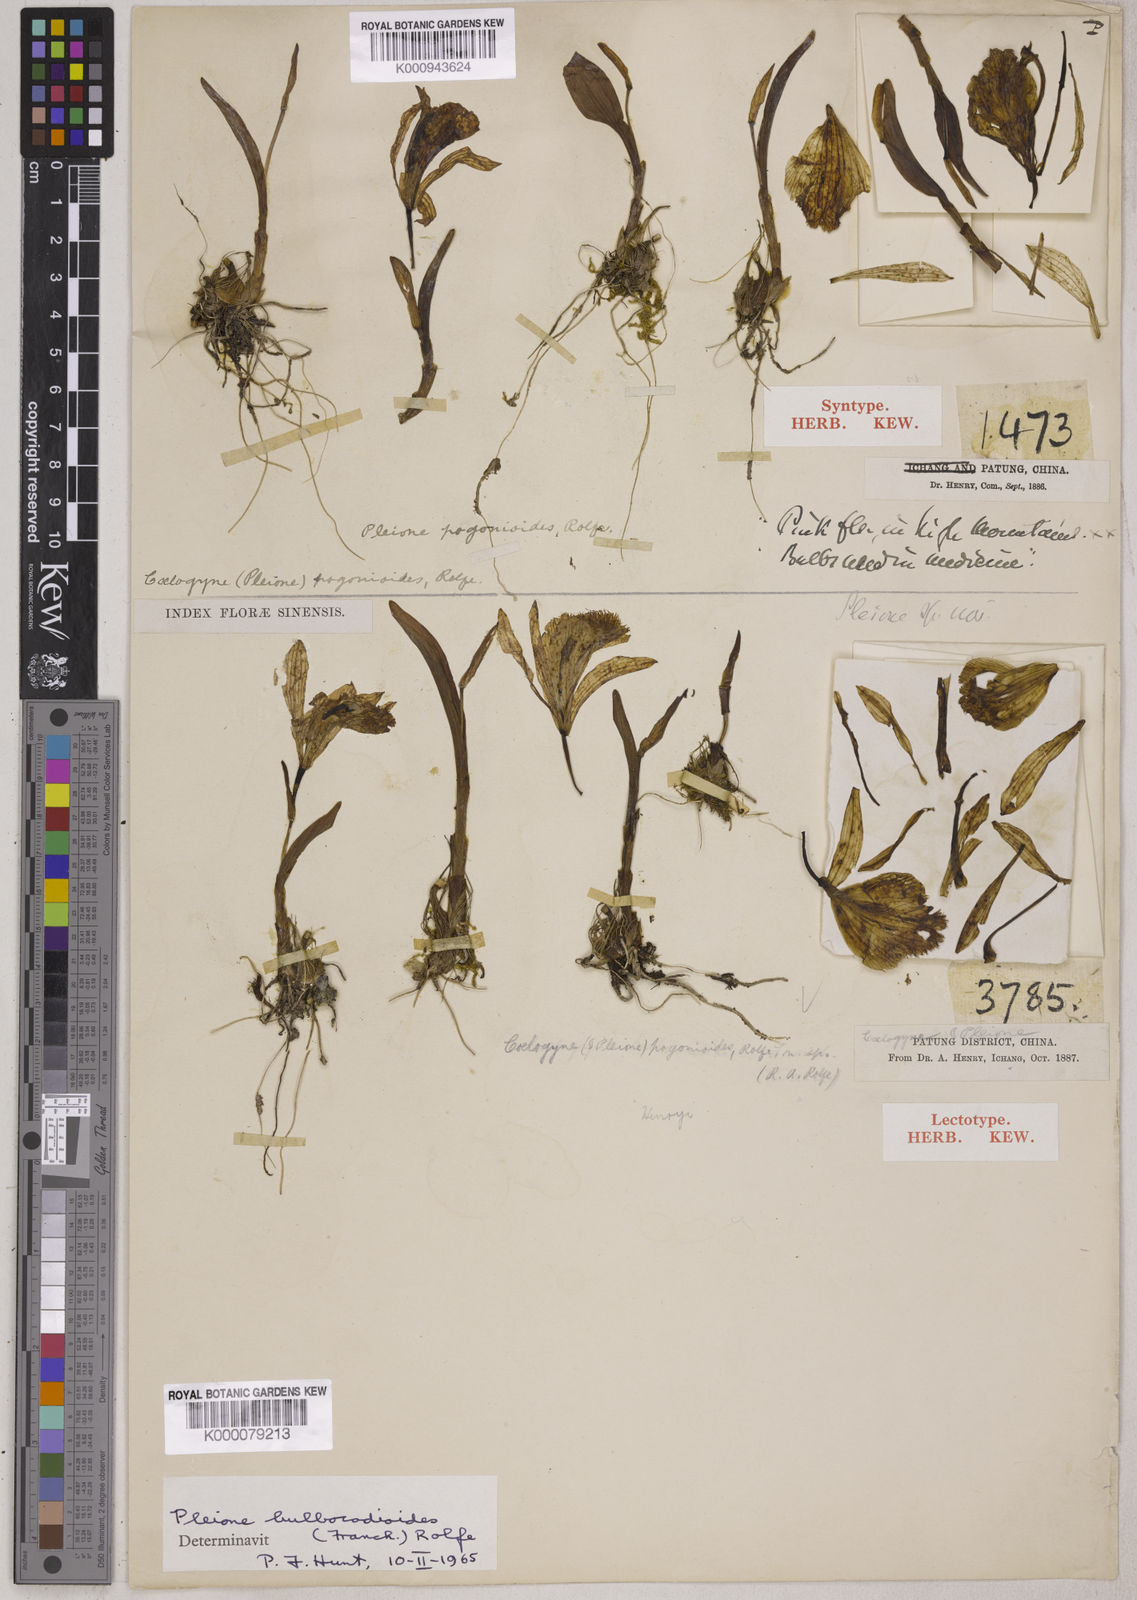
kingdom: Plantae
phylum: Tracheophyta
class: Liliopsida
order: Asparagales
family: Orchidaceae
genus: Pleione
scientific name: Pleione bulbocodioides
